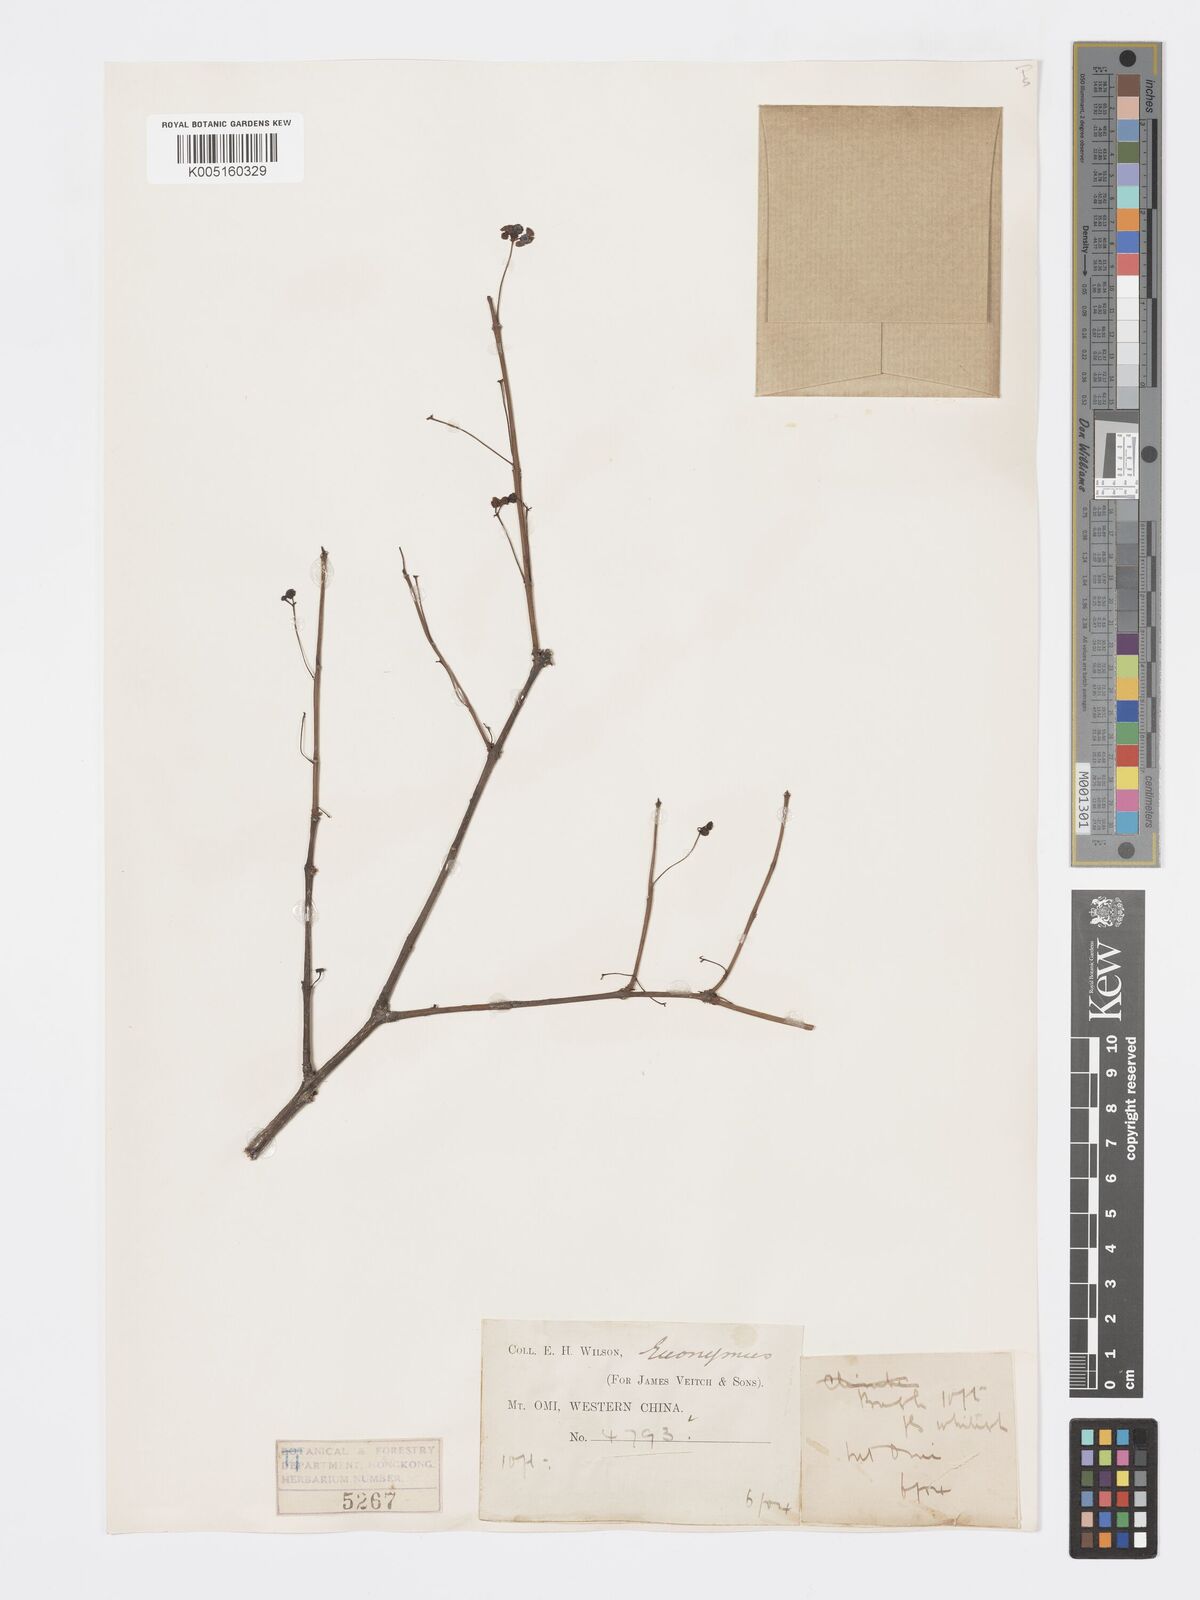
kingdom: Plantae
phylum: Tracheophyta
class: Magnoliopsida
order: Celastrales
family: Celastraceae
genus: Euonymus
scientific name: Euonymus
